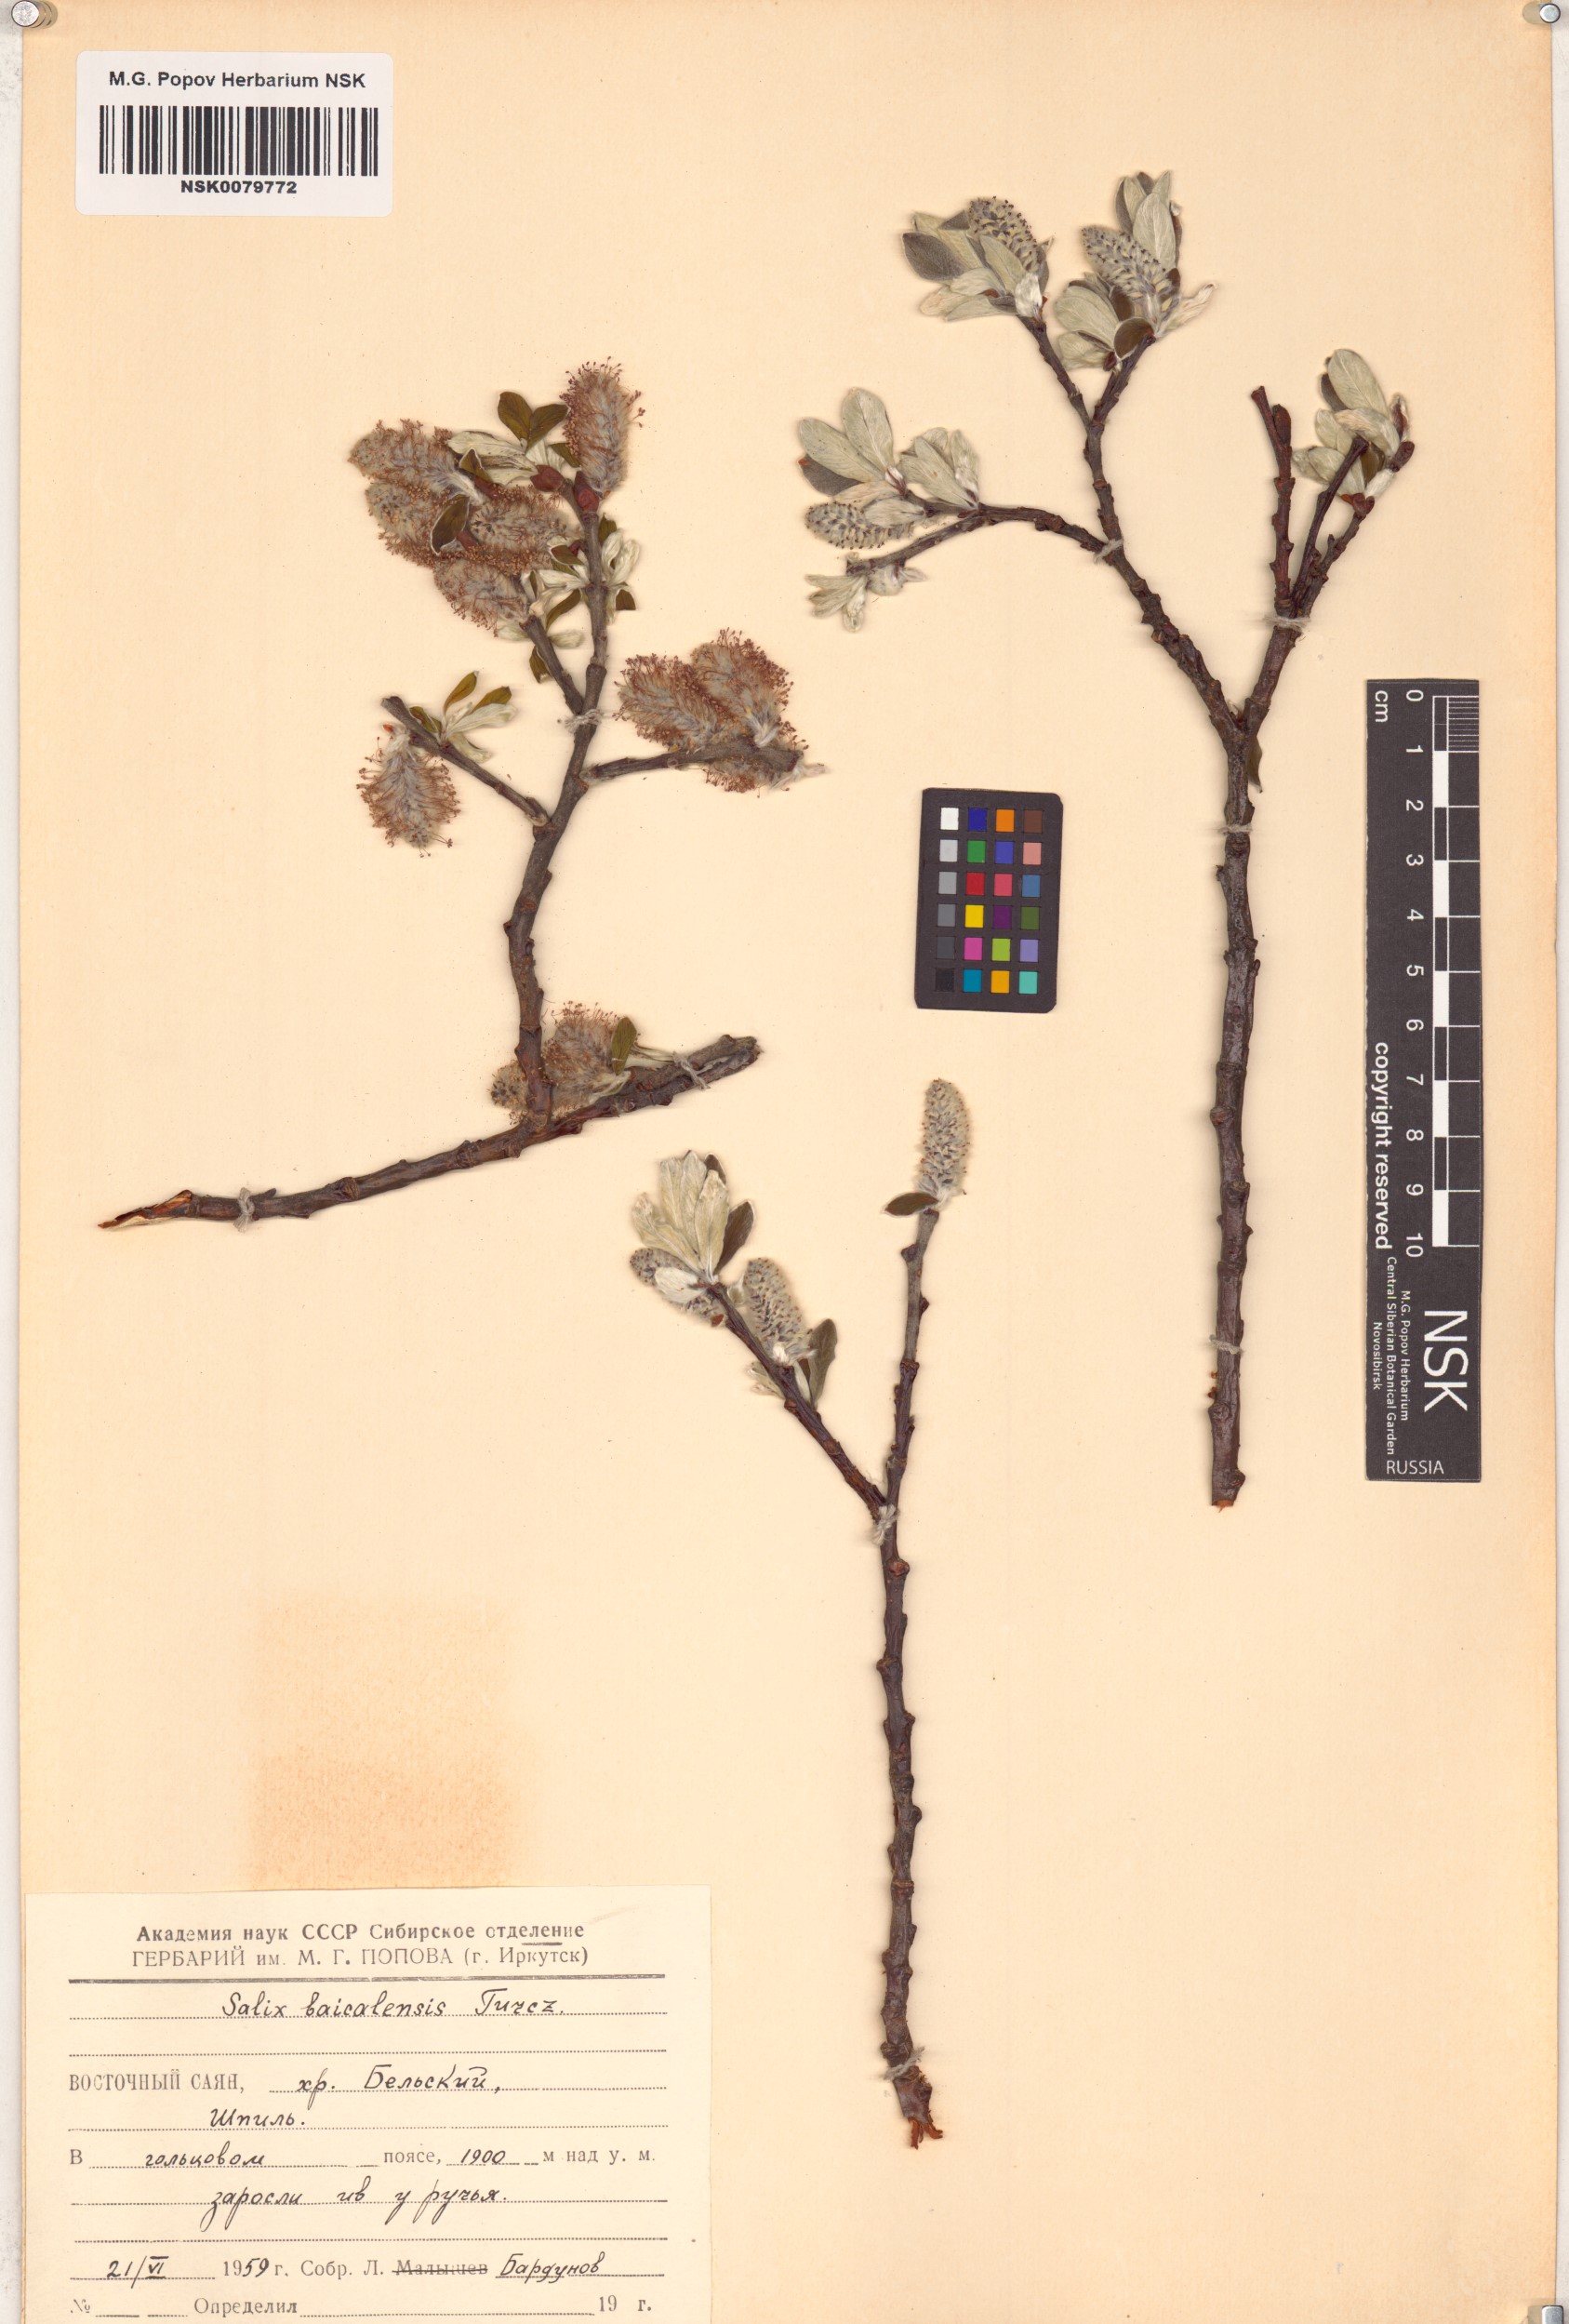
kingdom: Plantae
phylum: Tracheophyta
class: Magnoliopsida
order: Malpighiales
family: Salicaceae
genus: Salix
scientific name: Salix krylovii
